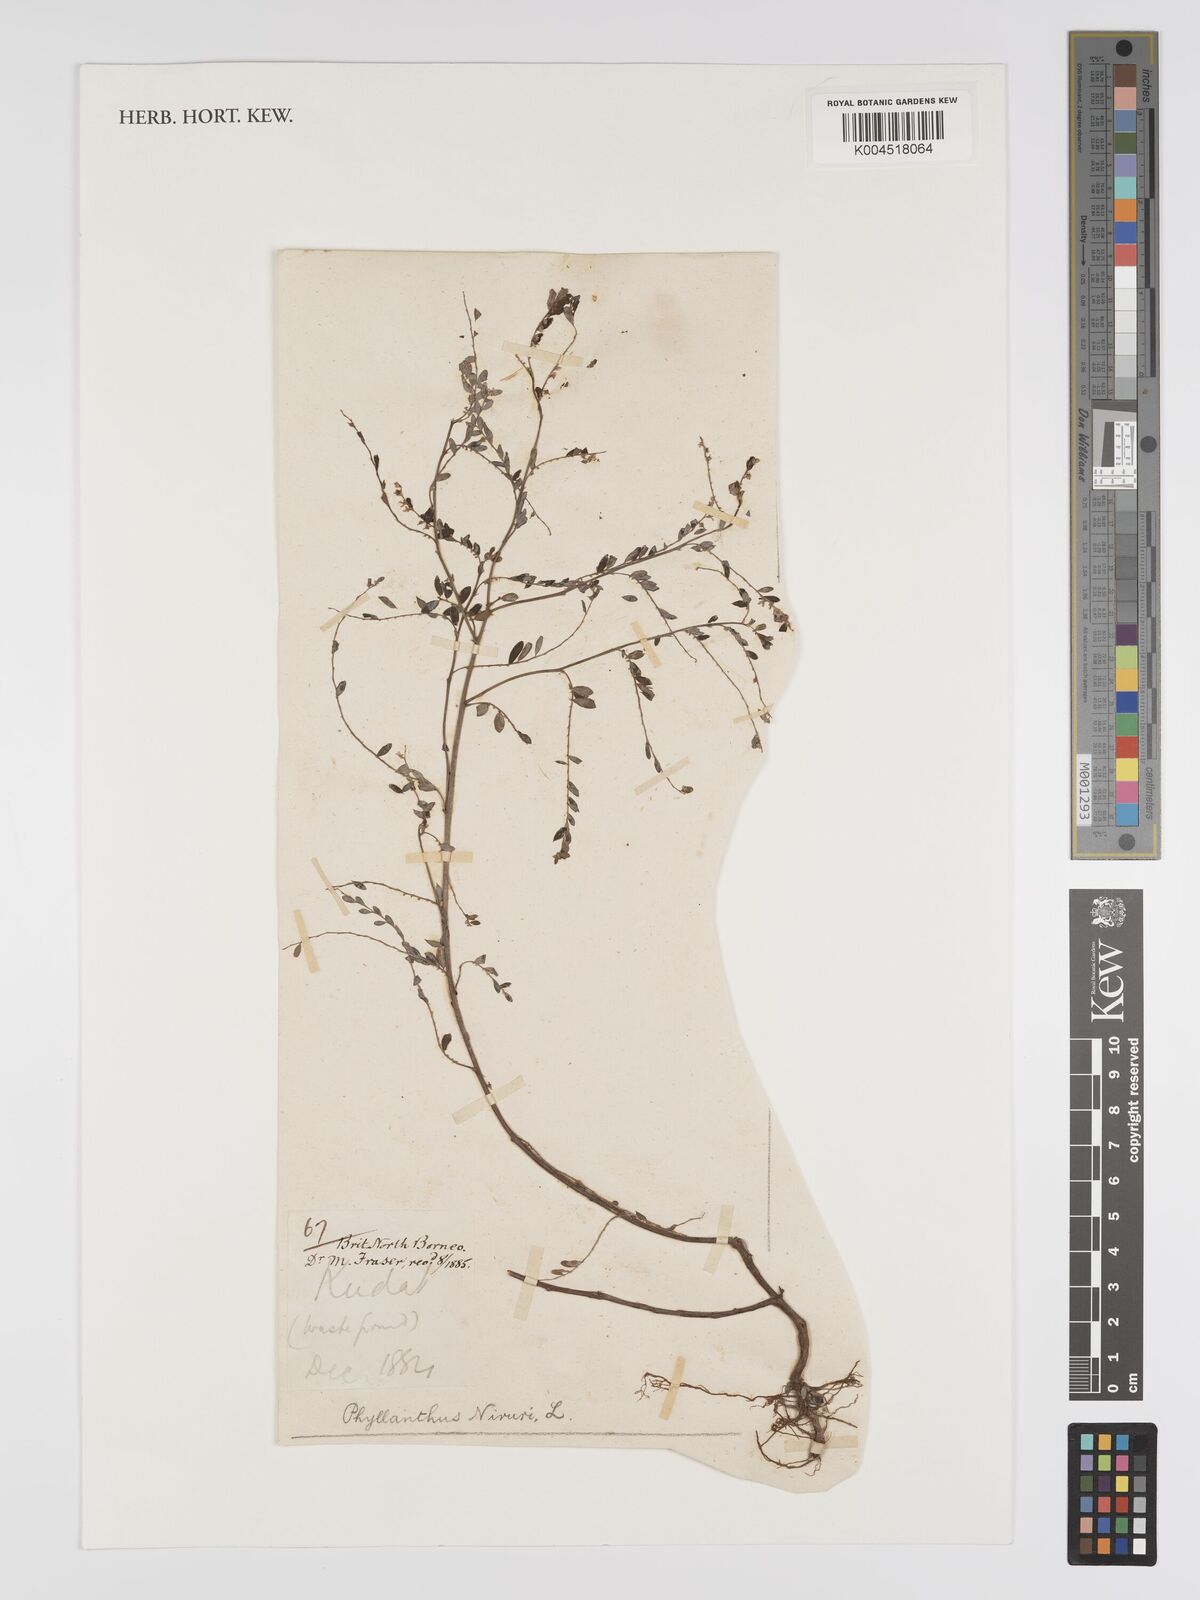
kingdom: Plantae
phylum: Tracheophyta
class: Magnoliopsida
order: Malpighiales
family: Phyllanthaceae
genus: Phyllanthus
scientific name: Phyllanthus urinaria
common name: Chamber bitter
